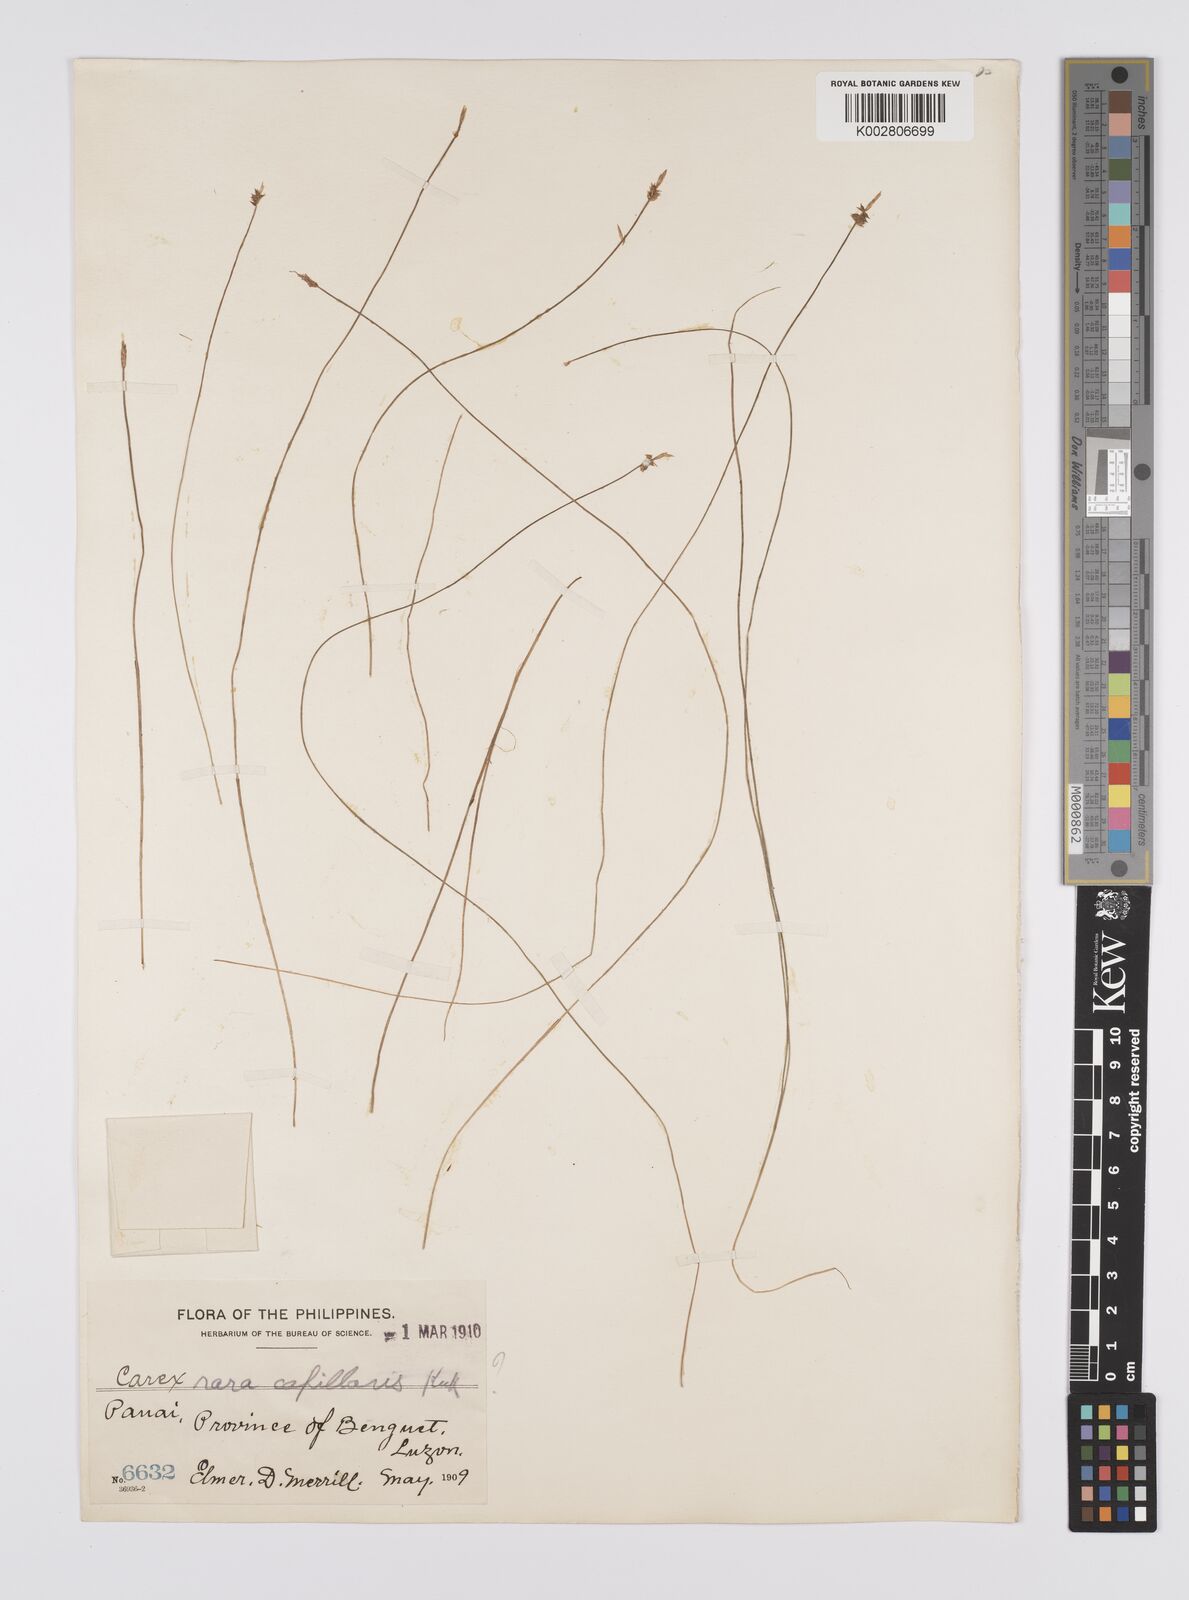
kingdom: Plantae
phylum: Tracheophyta
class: Liliopsida
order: Poales
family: Cyperaceae
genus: Carex
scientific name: Carex capillacea
